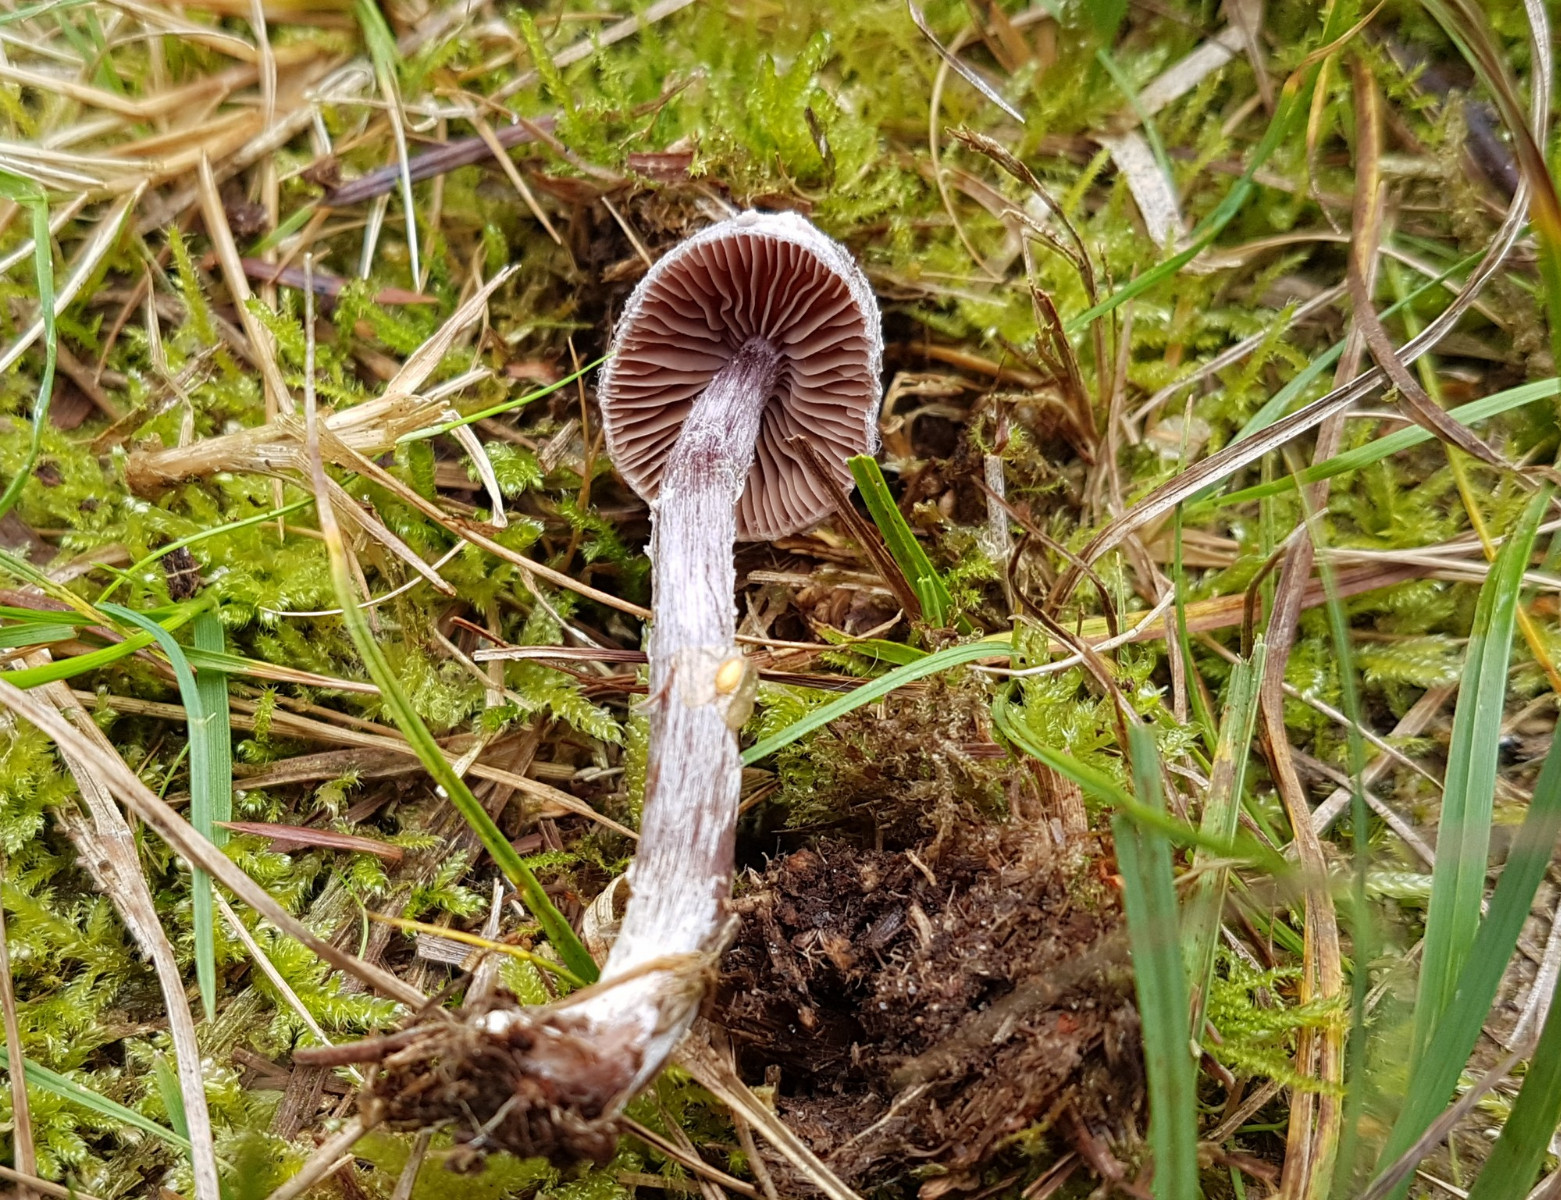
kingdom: Fungi
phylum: Basidiomycota
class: Agaricomycetes
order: Agaricales
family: Cortinariaceae
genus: Cortinarius
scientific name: Cortinarius
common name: pelargonie-slørhat
